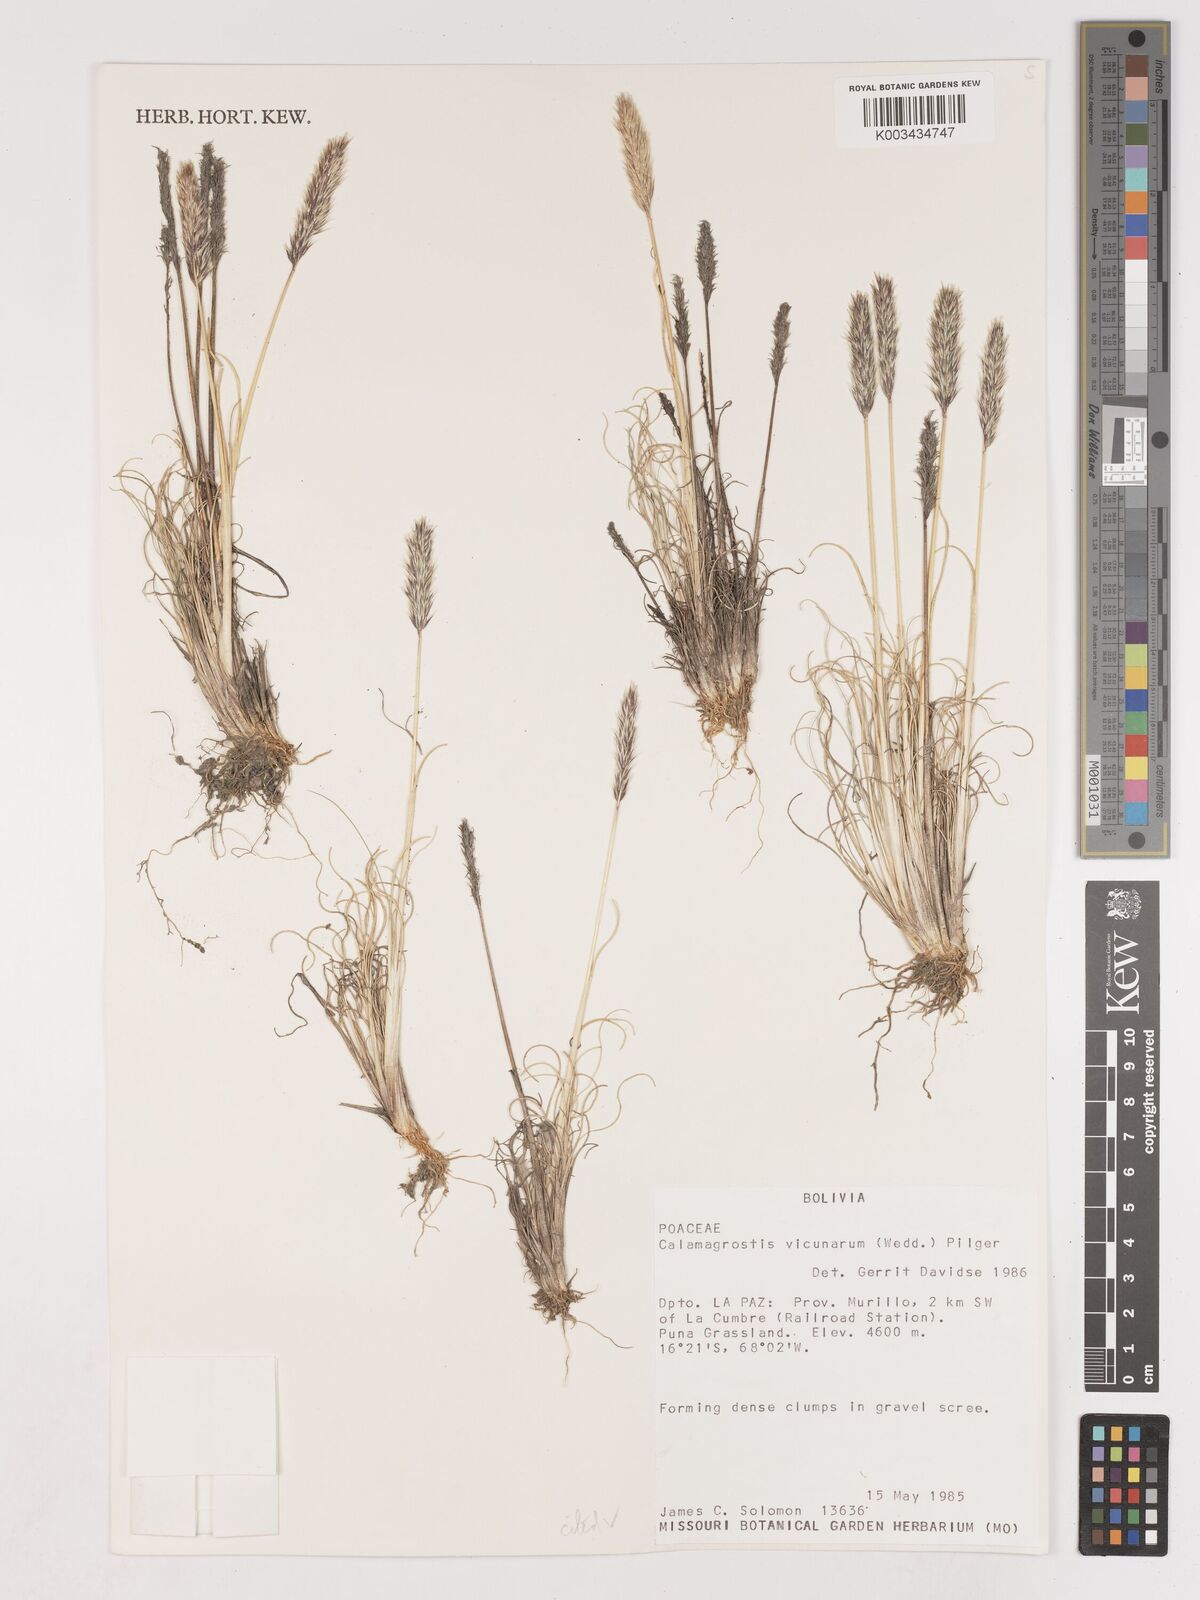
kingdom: Plantae
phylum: Tracheophyta
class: Liliopsida
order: Poales
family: Poaceae
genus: Cinnagrostis
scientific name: Cinnagrostis vicunarum
